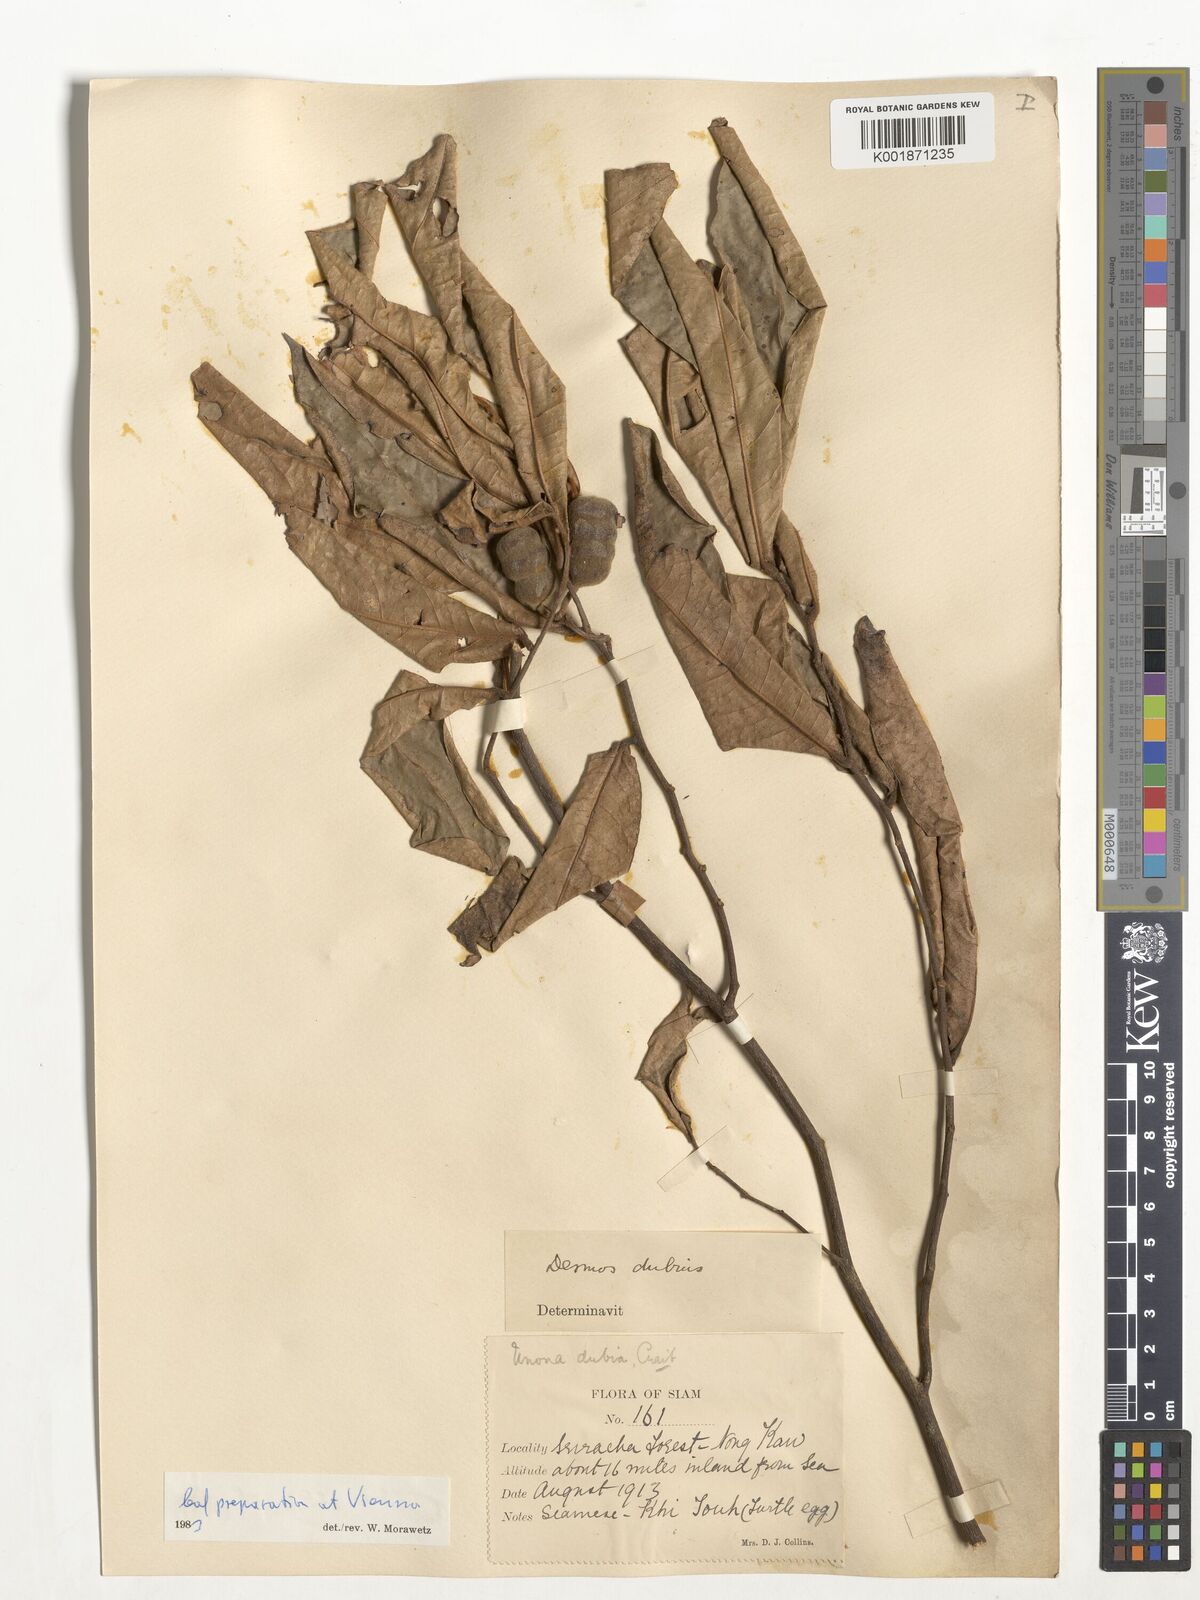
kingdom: Plantae
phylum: Tracheophyta
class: Magnoliopsida
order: Magnoliales
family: Annonaceae
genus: Polyalthia
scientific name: Polyalthia
